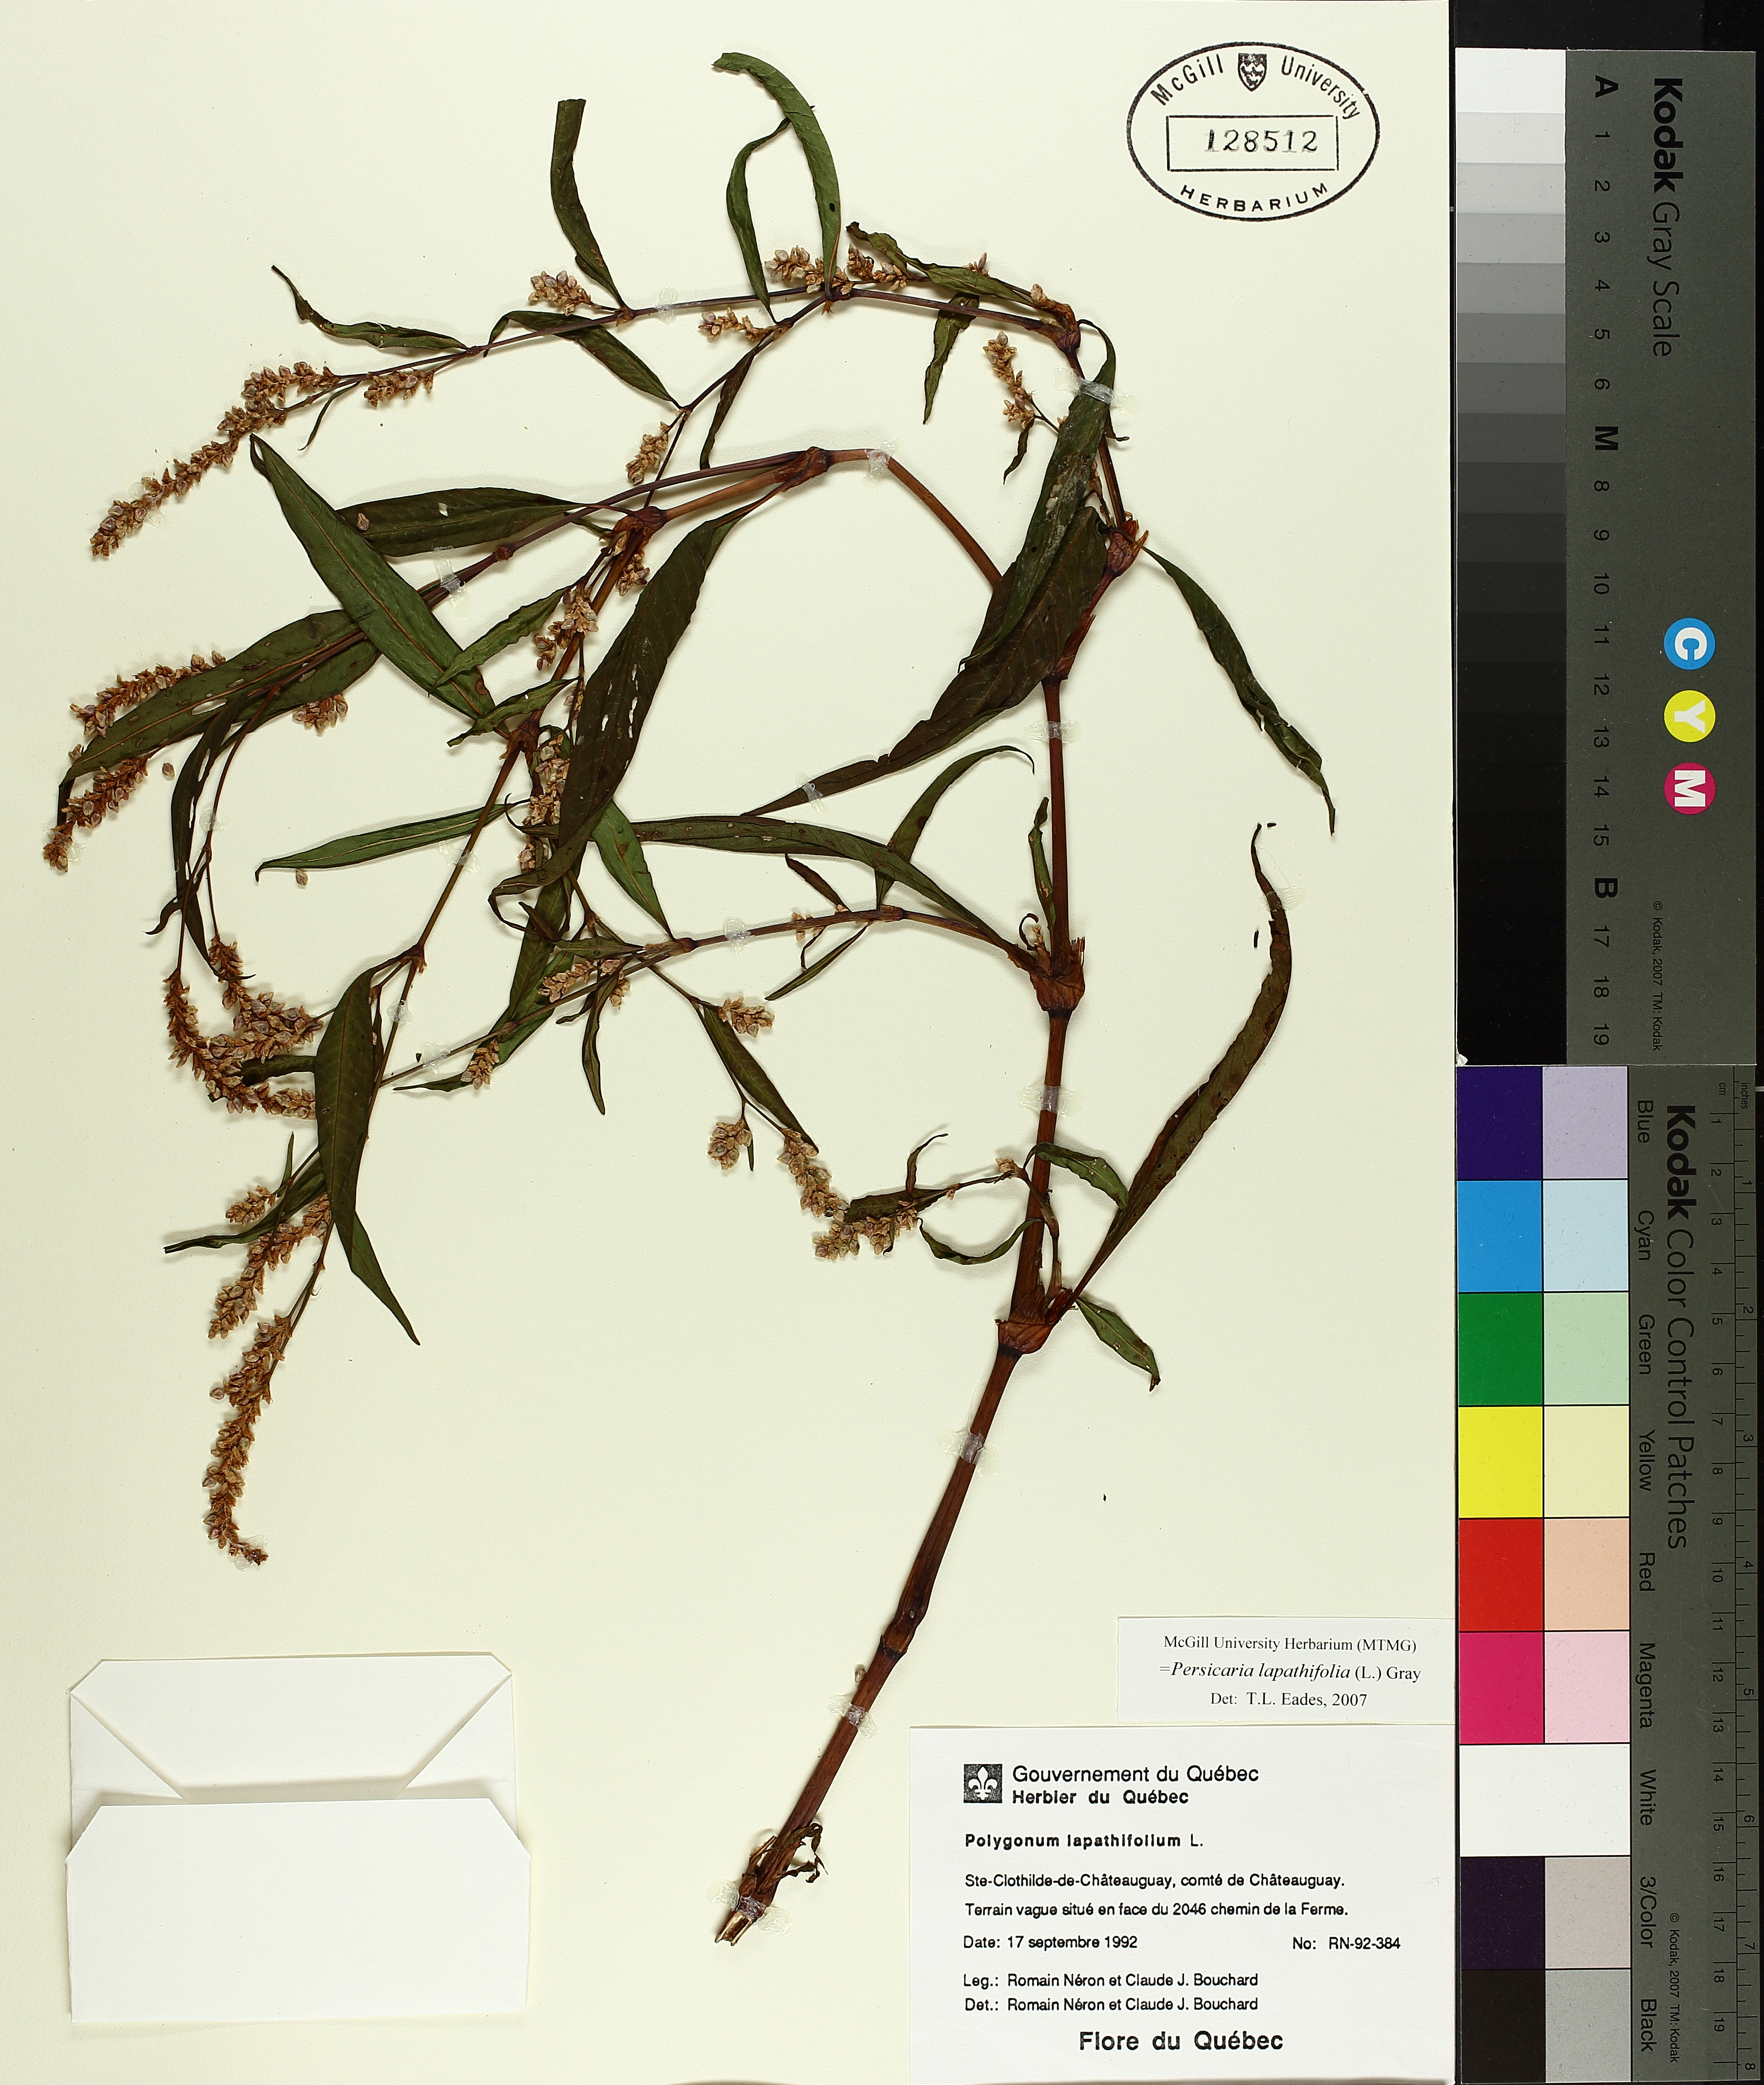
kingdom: Plantae
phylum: Tracheophyta
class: Magnoliopsida
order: Caryophyllales
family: Polygonaceae
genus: Persicaria
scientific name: Persicaria lapathifolia
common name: Curlytop knotweed
